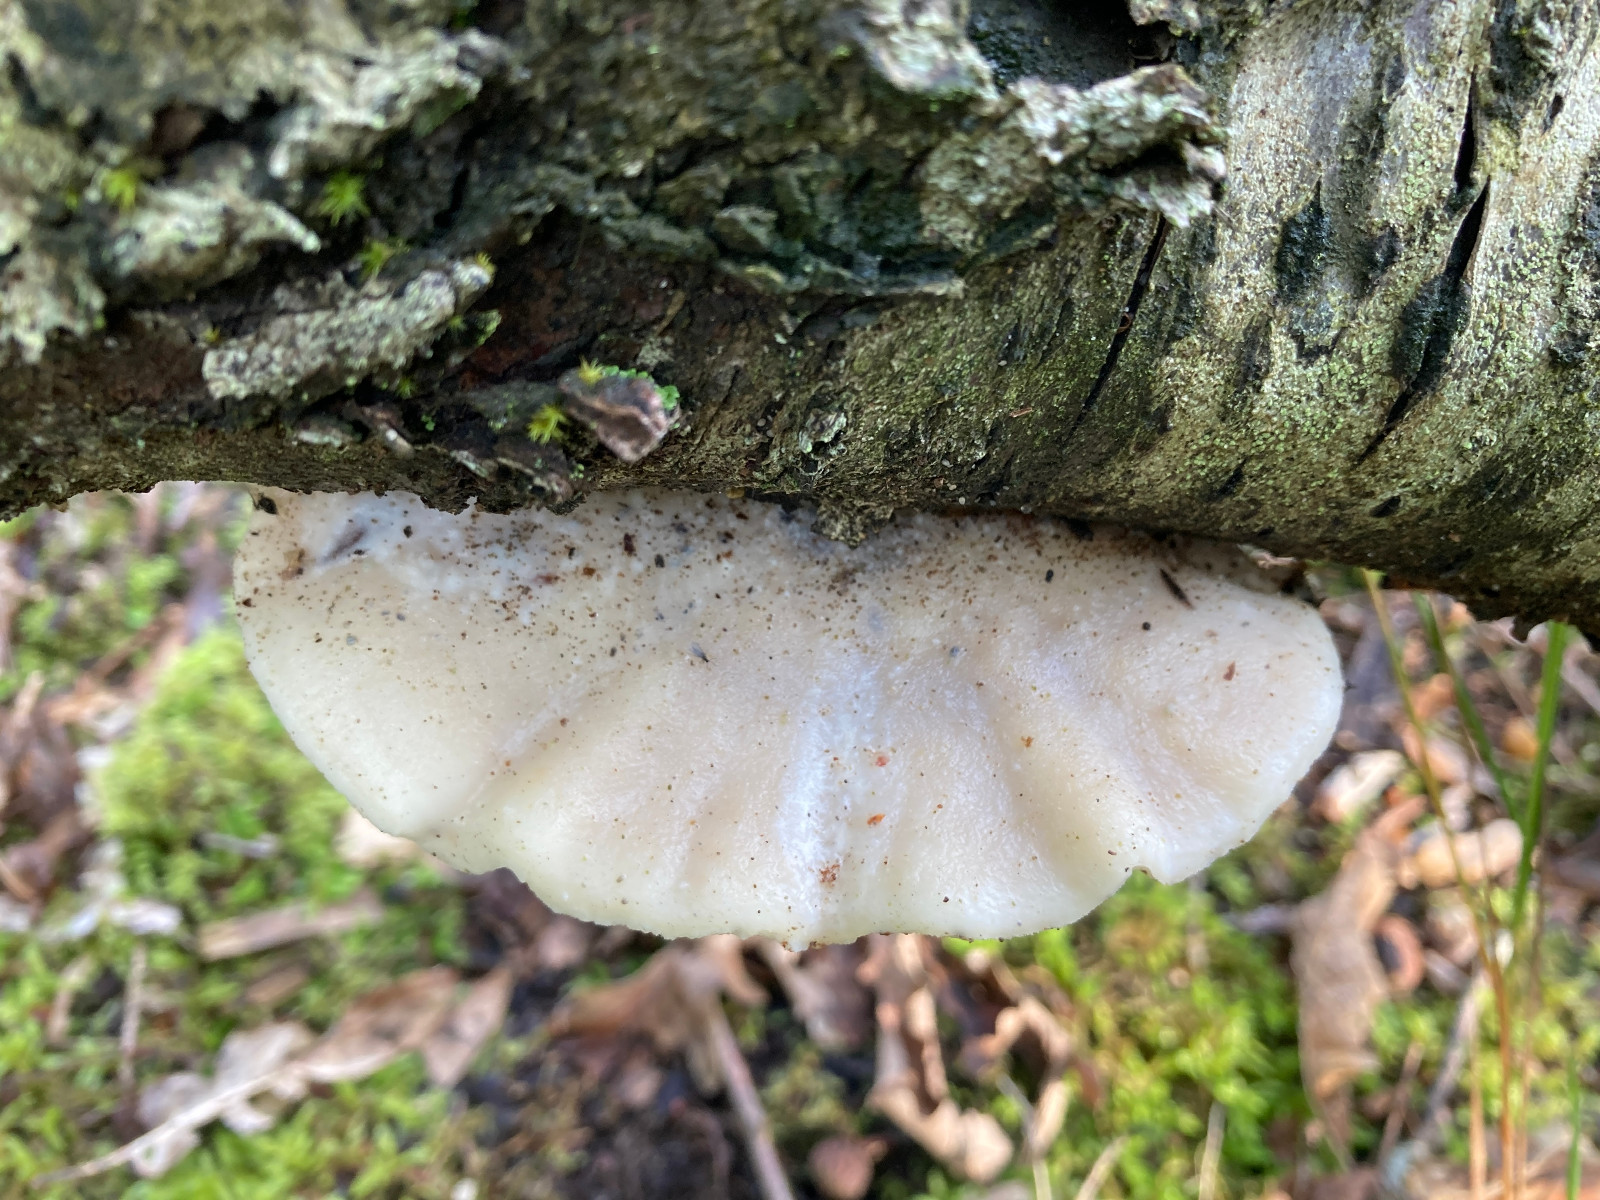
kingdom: Fungi
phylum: Basidiomycota
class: Agaricomycetes
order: Polyporales
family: Incrustoporiaceae
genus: Tyromyces
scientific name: Tyromyces lacteus
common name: mælkehvid kødporesvamp
